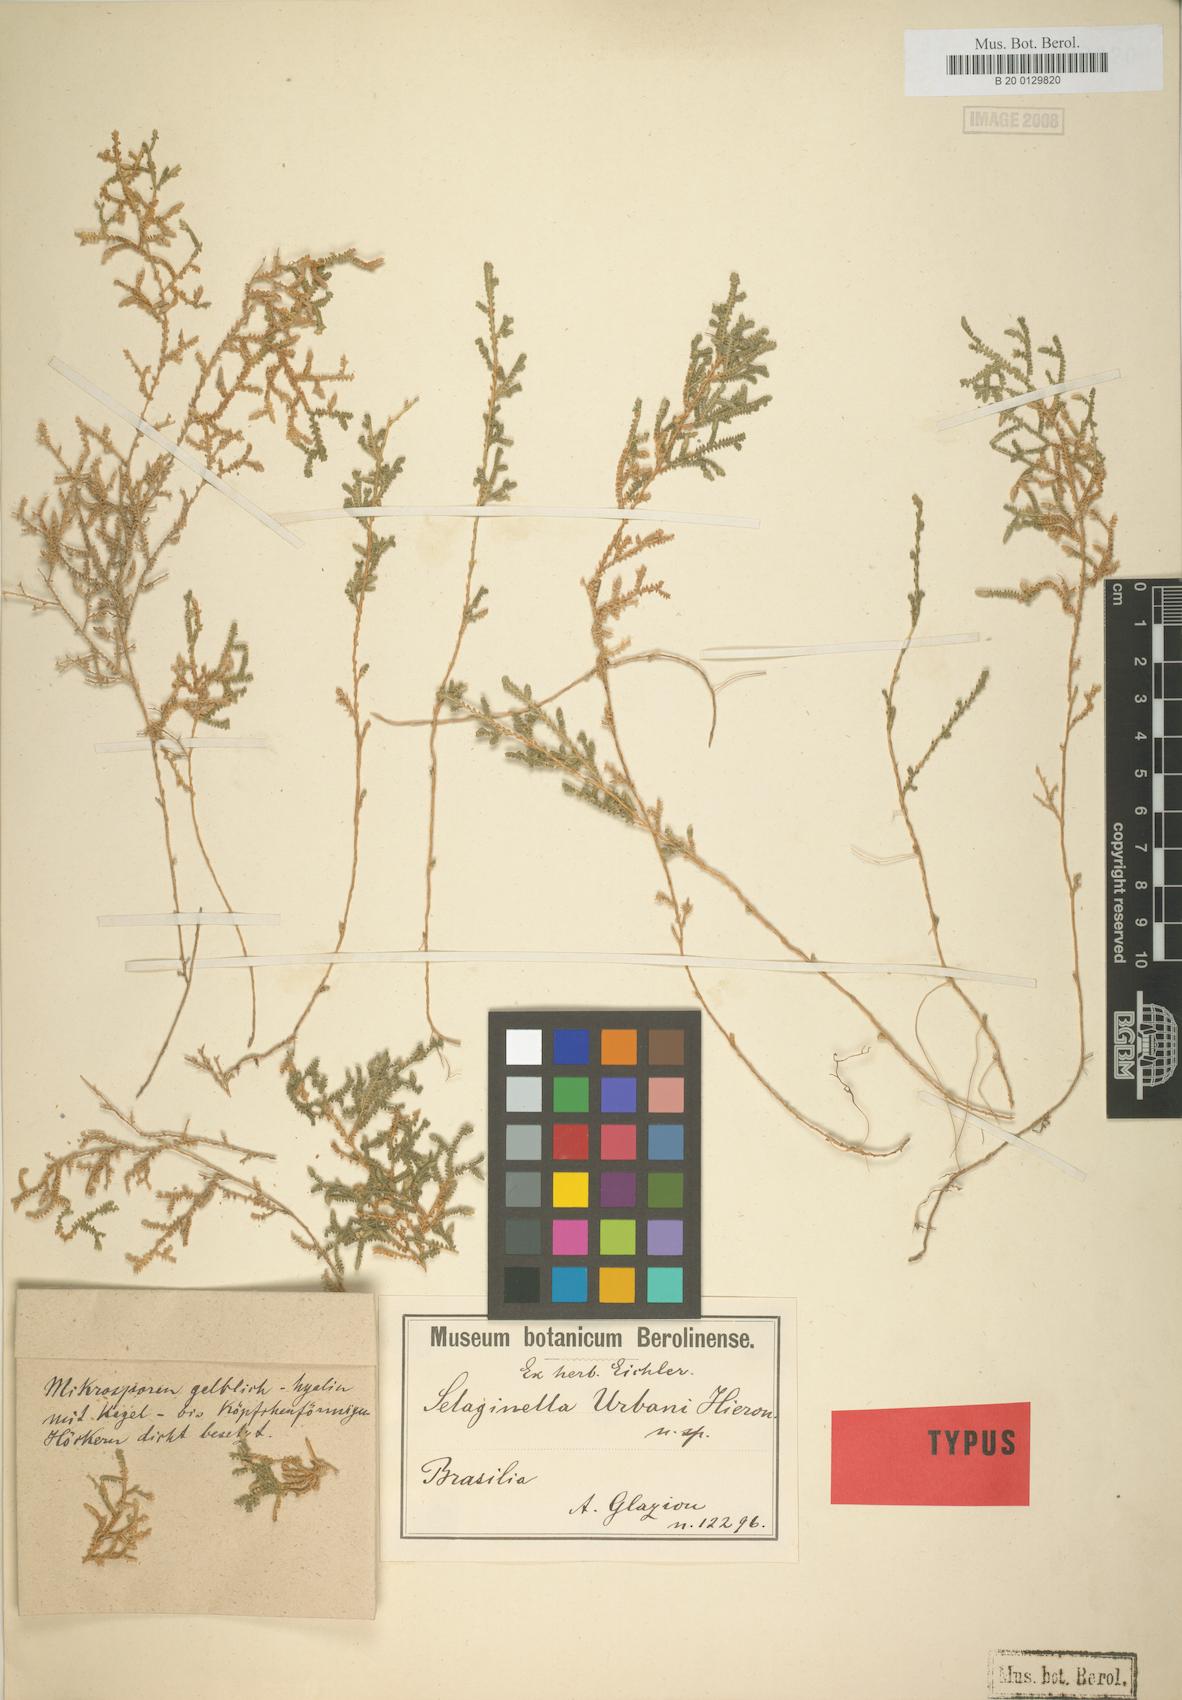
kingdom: Plantae
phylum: Tracheophyta
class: Lycopodiopsida
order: Selaginellales
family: Selaginellaceae
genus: Selaginella
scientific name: Selaginella marginata
